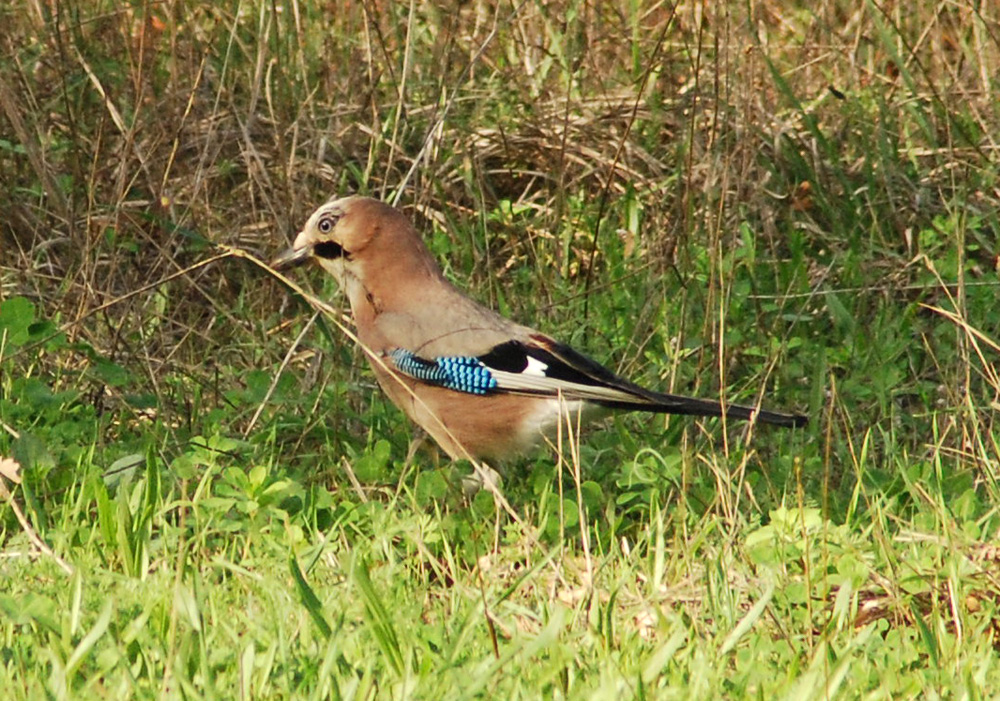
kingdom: Animalia
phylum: Chordata
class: Aves
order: Passeriformes
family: Corvidae
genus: Garrulus
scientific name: Garrulus glandarius
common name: Eurasian jay
